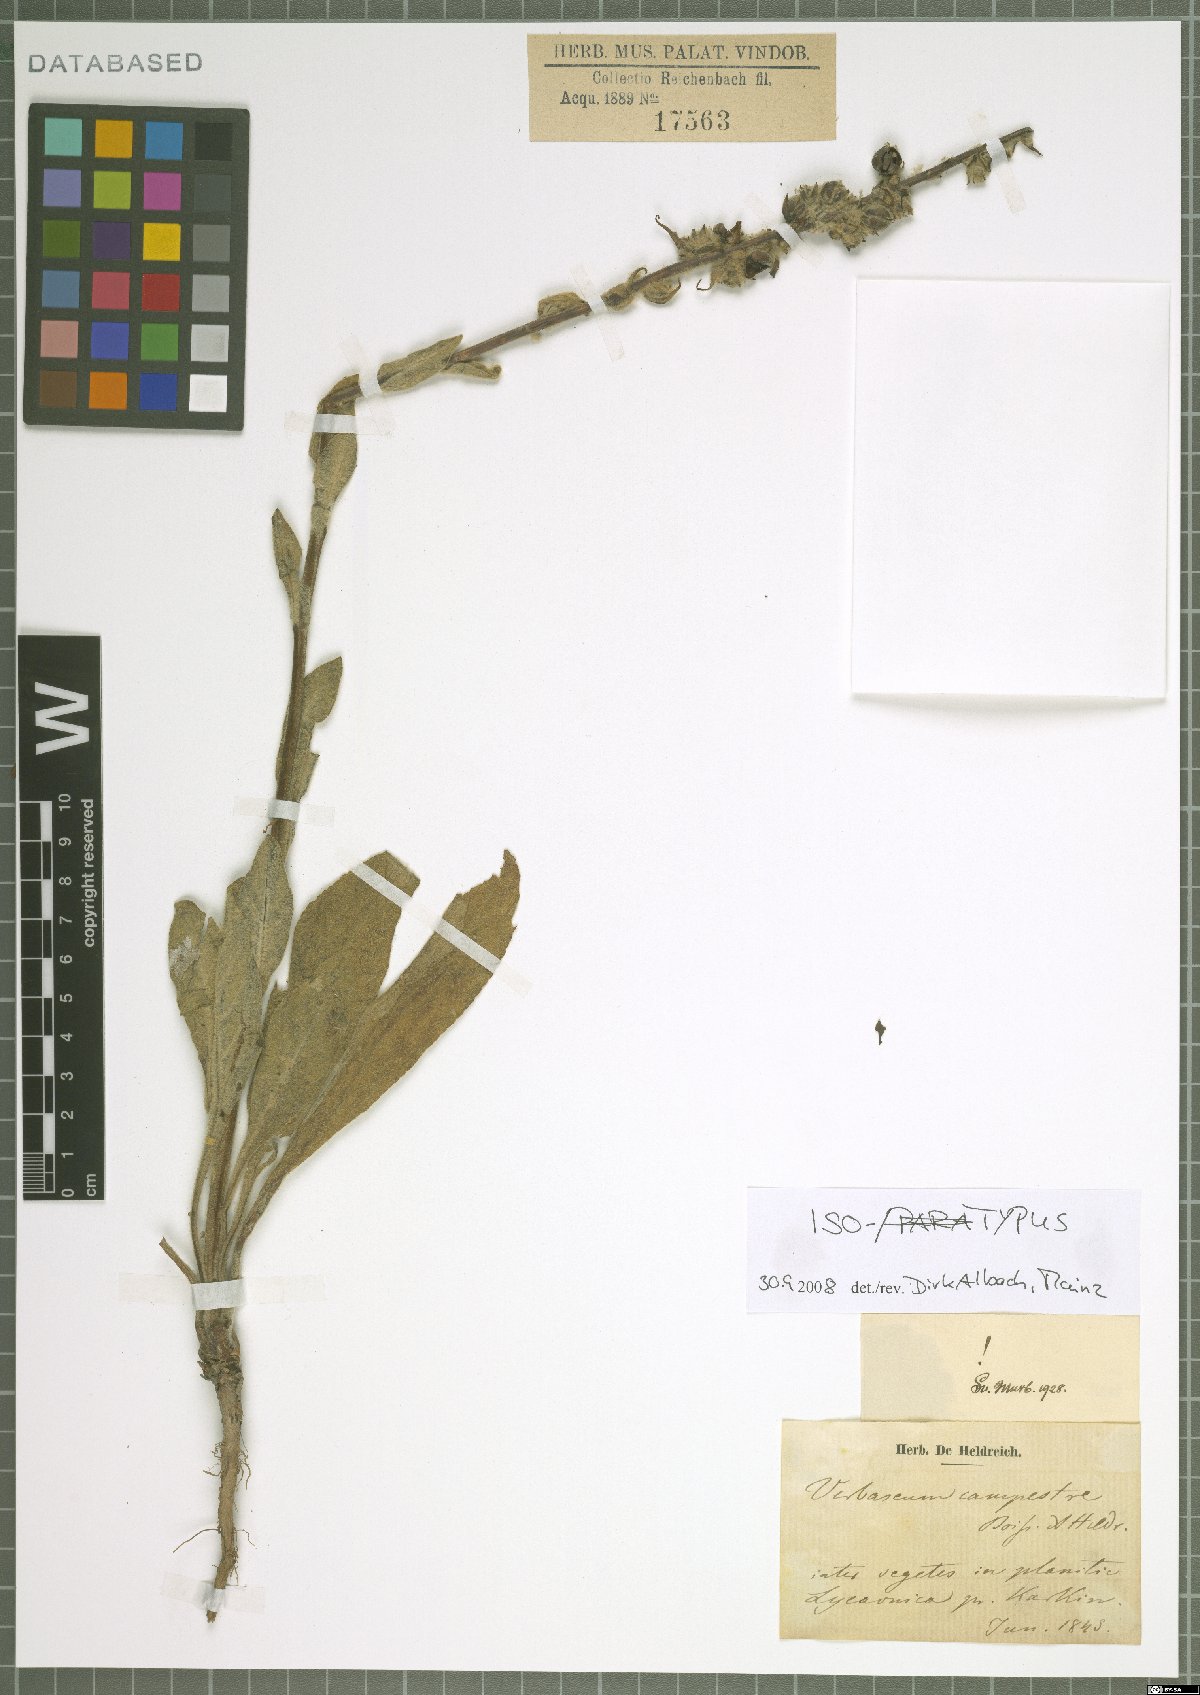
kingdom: Plantae
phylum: Tracheophyta
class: Magnoliopsida
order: Lamiales
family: Scrophulariaceae
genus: Verbascum
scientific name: Verbascum campestre
